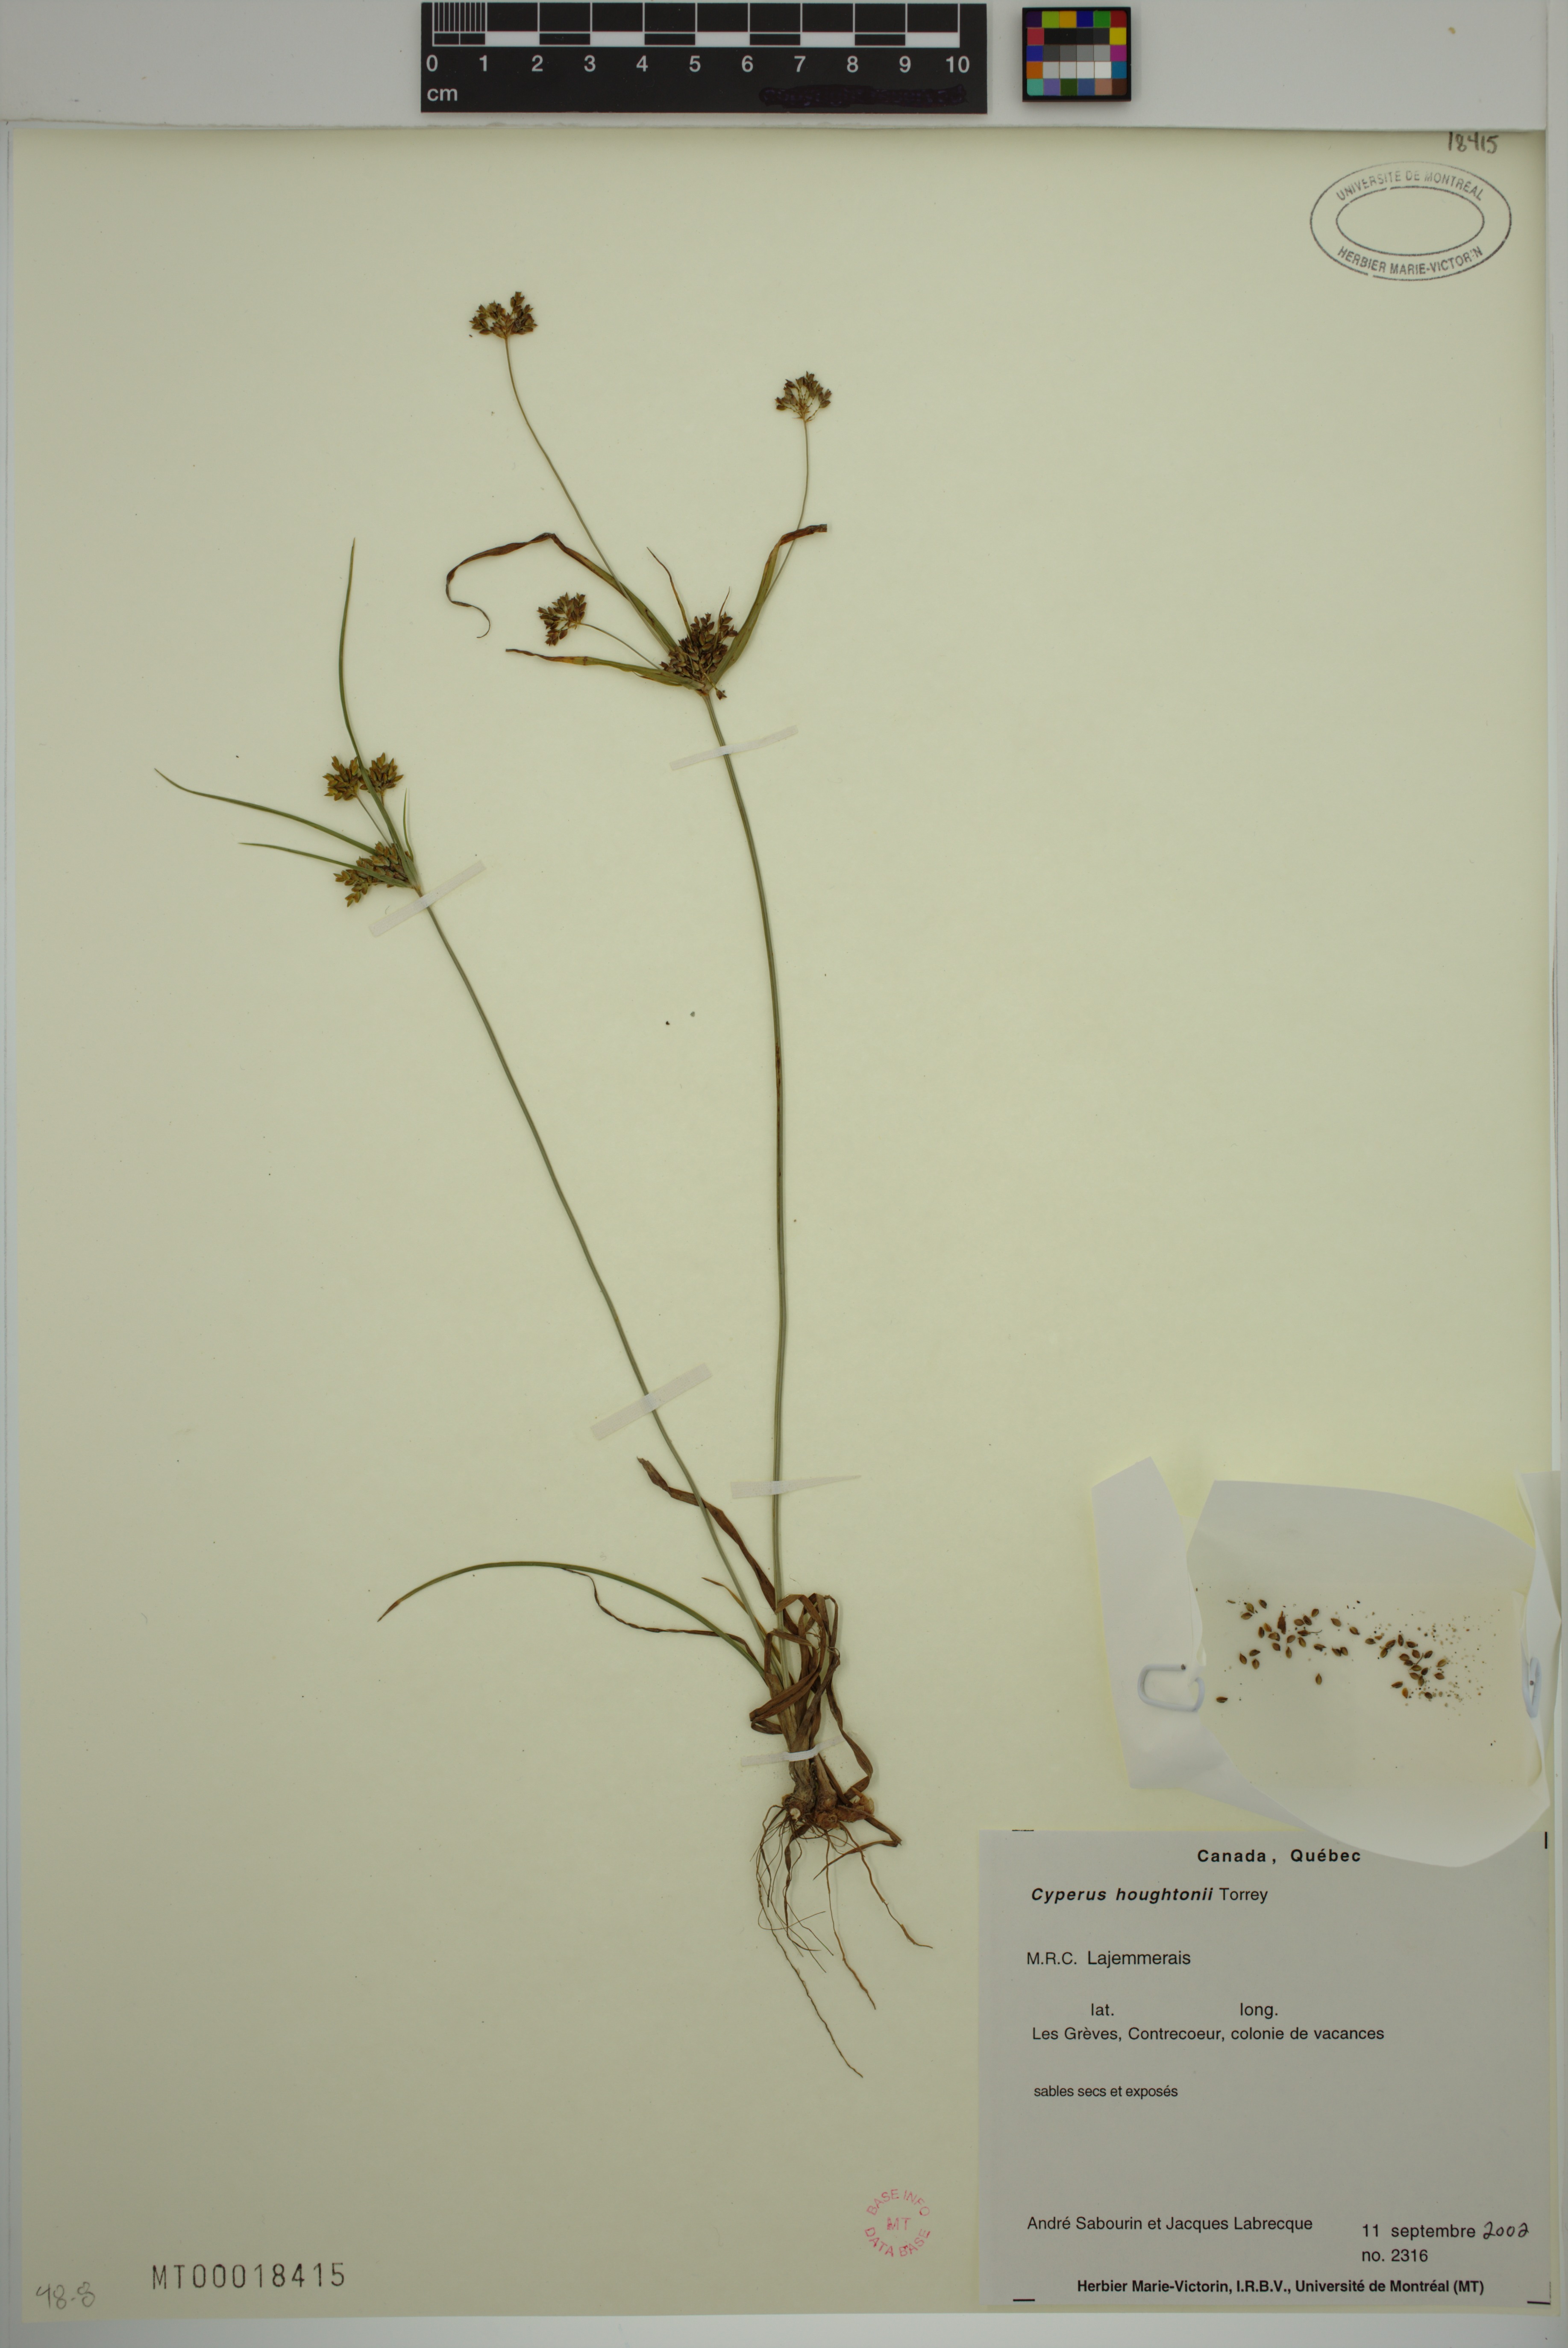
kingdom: Plantae
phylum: Tracheophyta
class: Liliopsida
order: Poales
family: Cyperaceae
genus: Cyperus
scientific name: Cyperus houghtonii
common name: Houghton's cyperus
